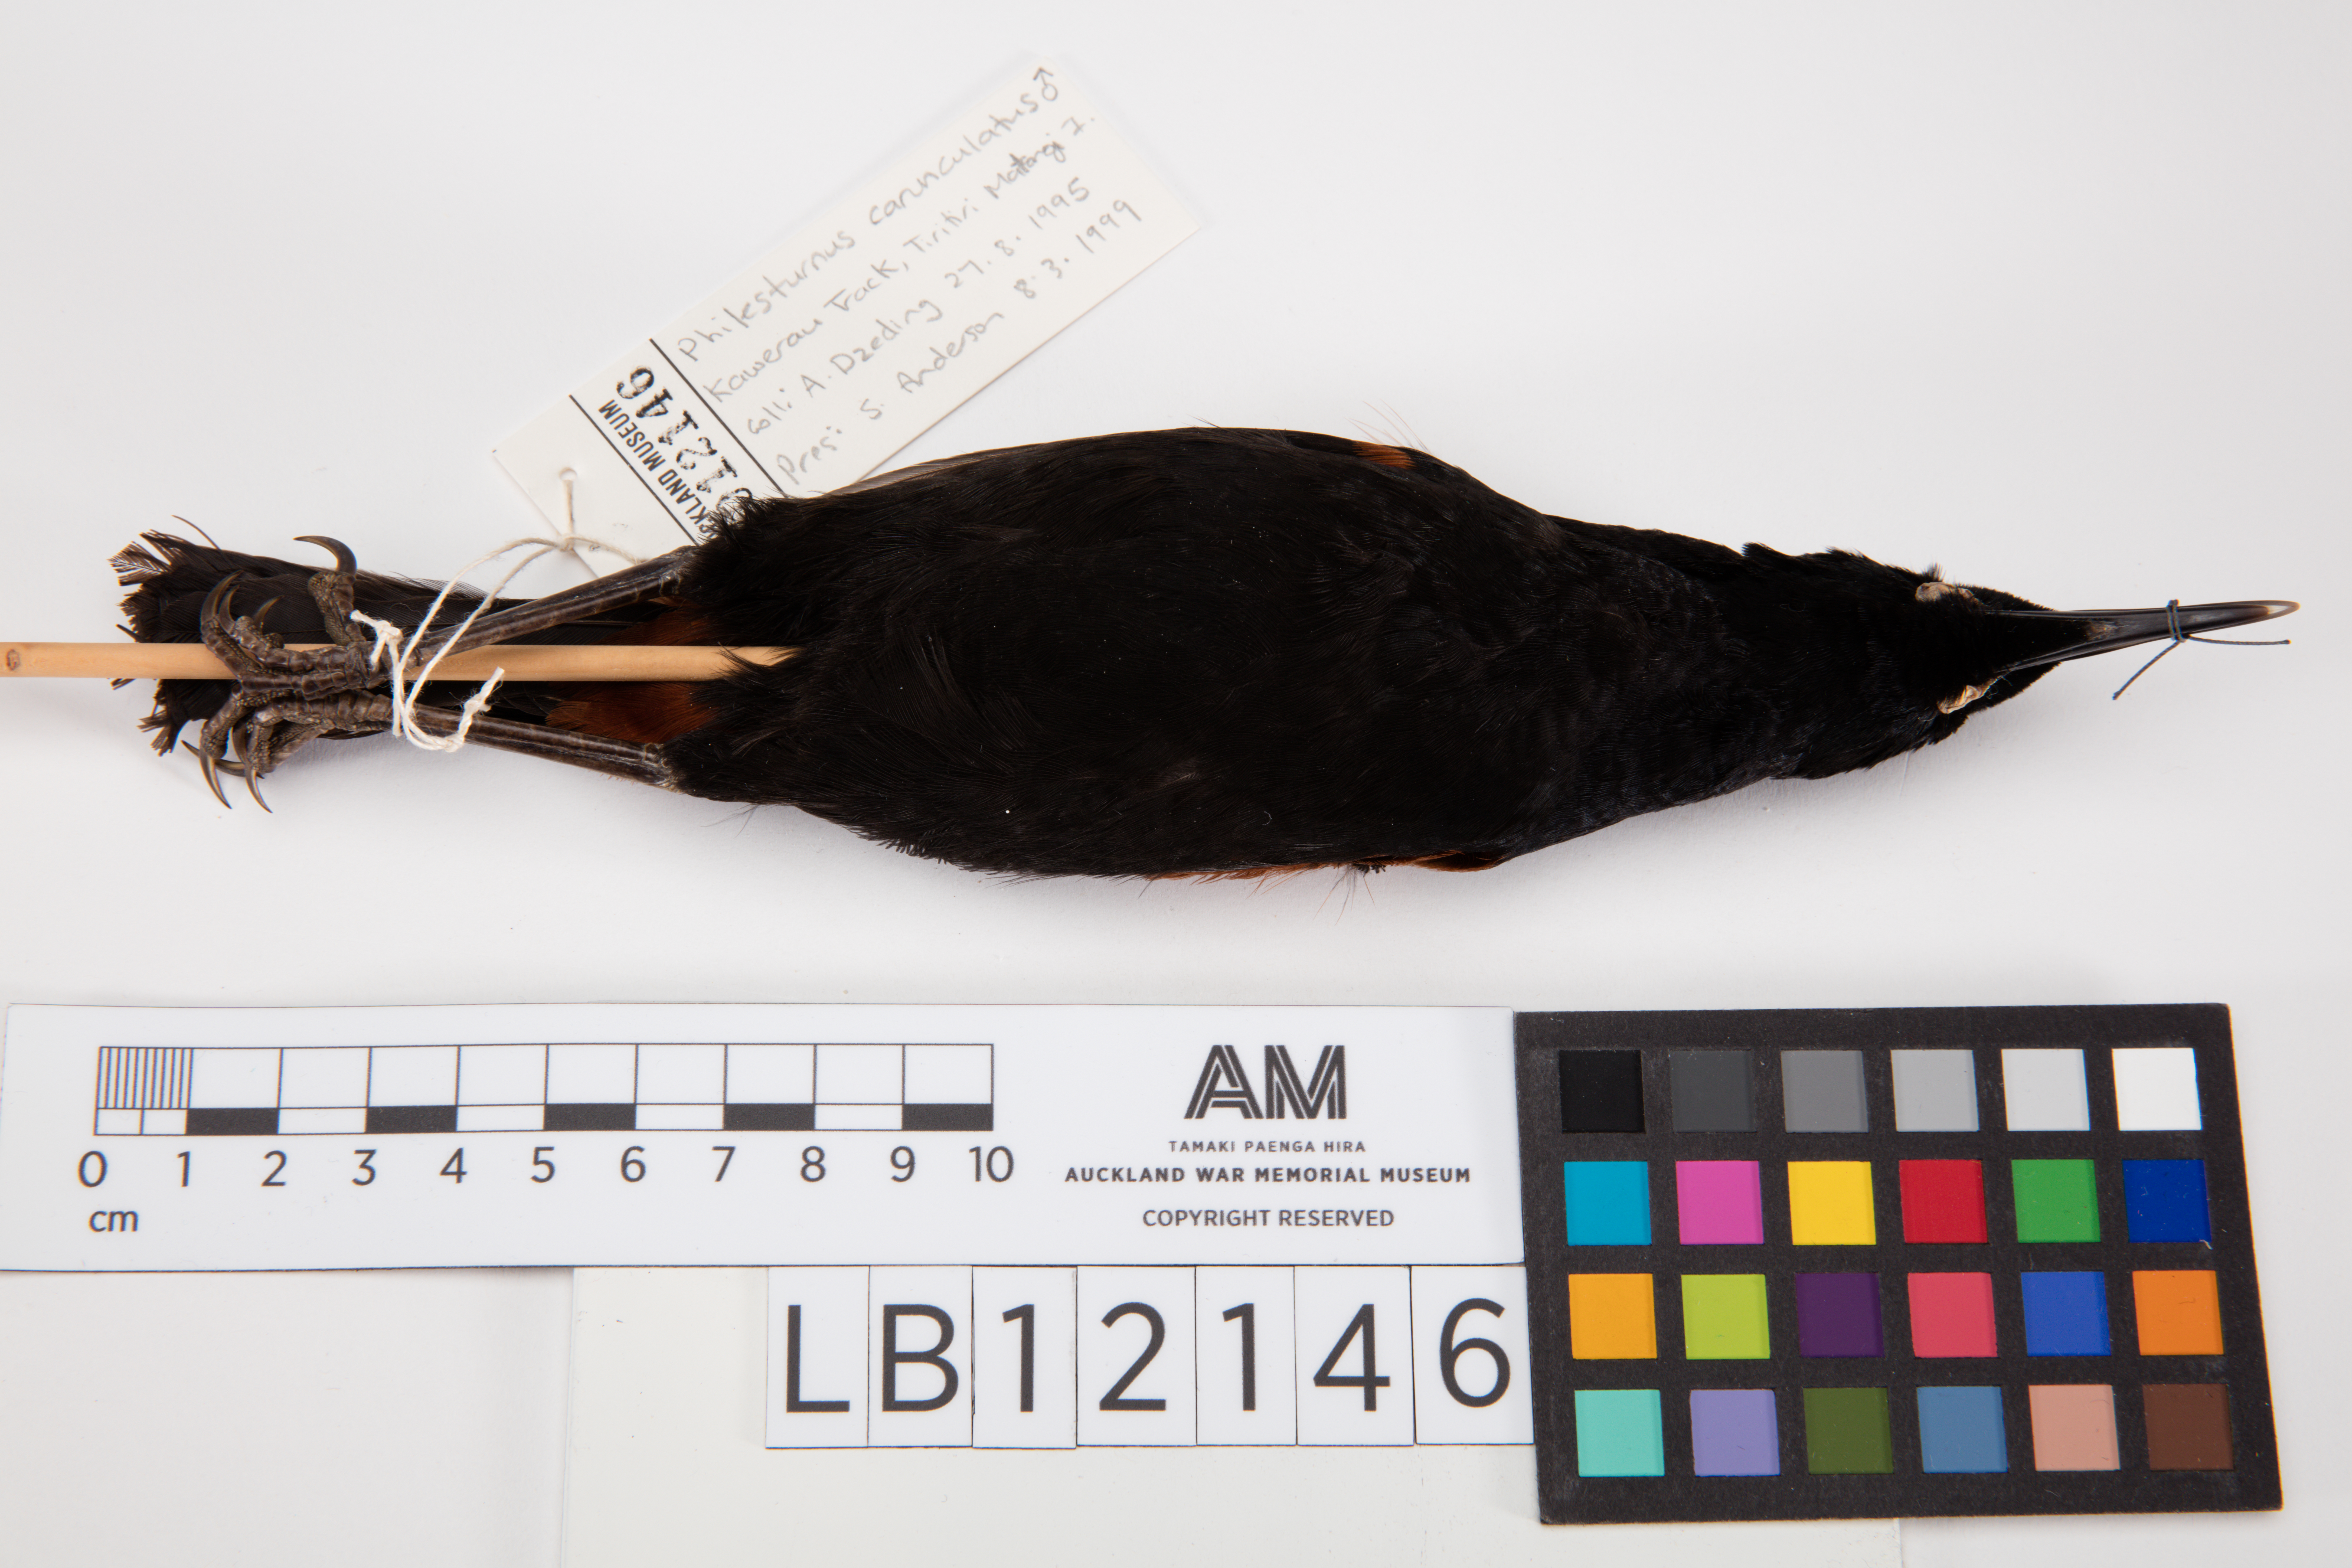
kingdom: Animalia
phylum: Chordata
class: Aves
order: Passeriformes
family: Callaeatidae
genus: Philesturnus
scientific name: Philesturnus carunculatus
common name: South island saddleback
